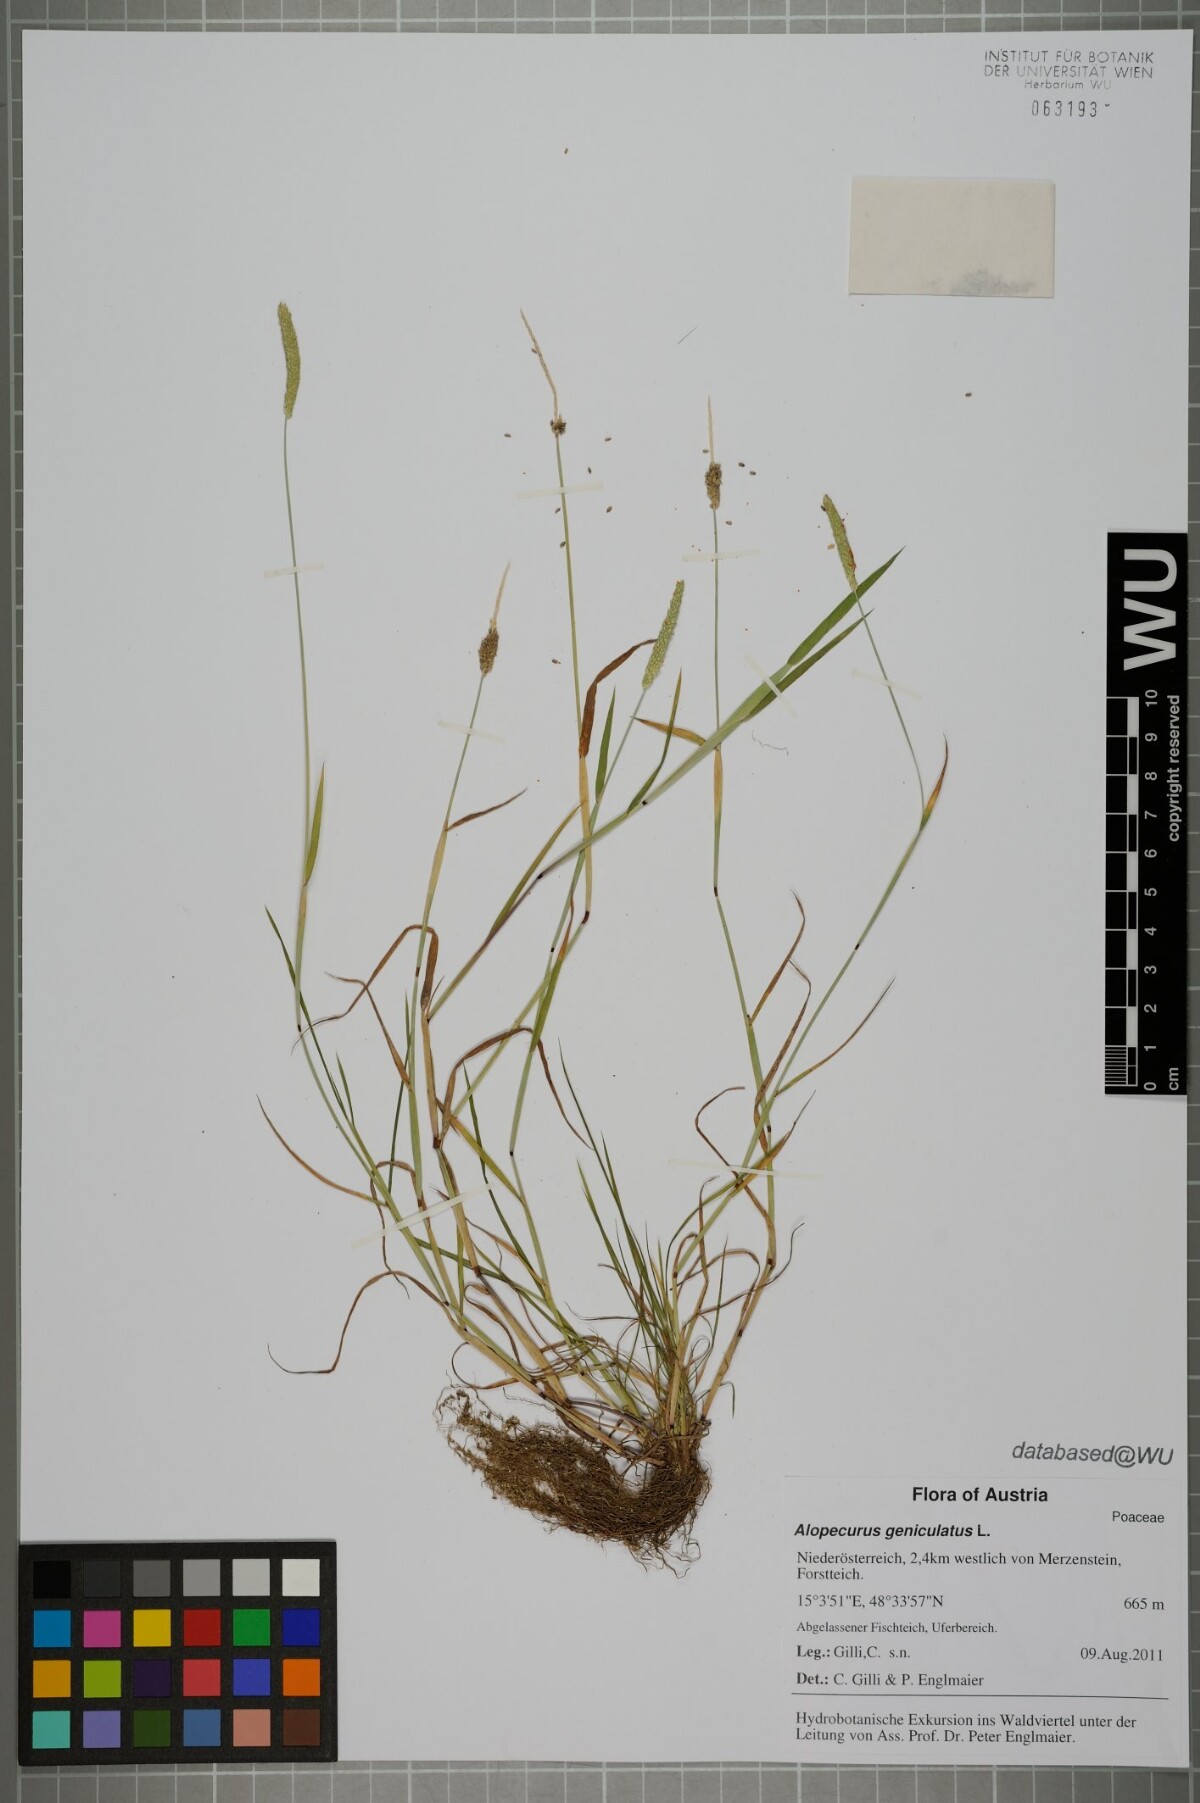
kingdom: Plantae
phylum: Tracheophyta
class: Liliopsida
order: Poales
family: Poaceae
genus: Alopecurus
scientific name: Alopecurus geniculatus
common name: Water foxtail
